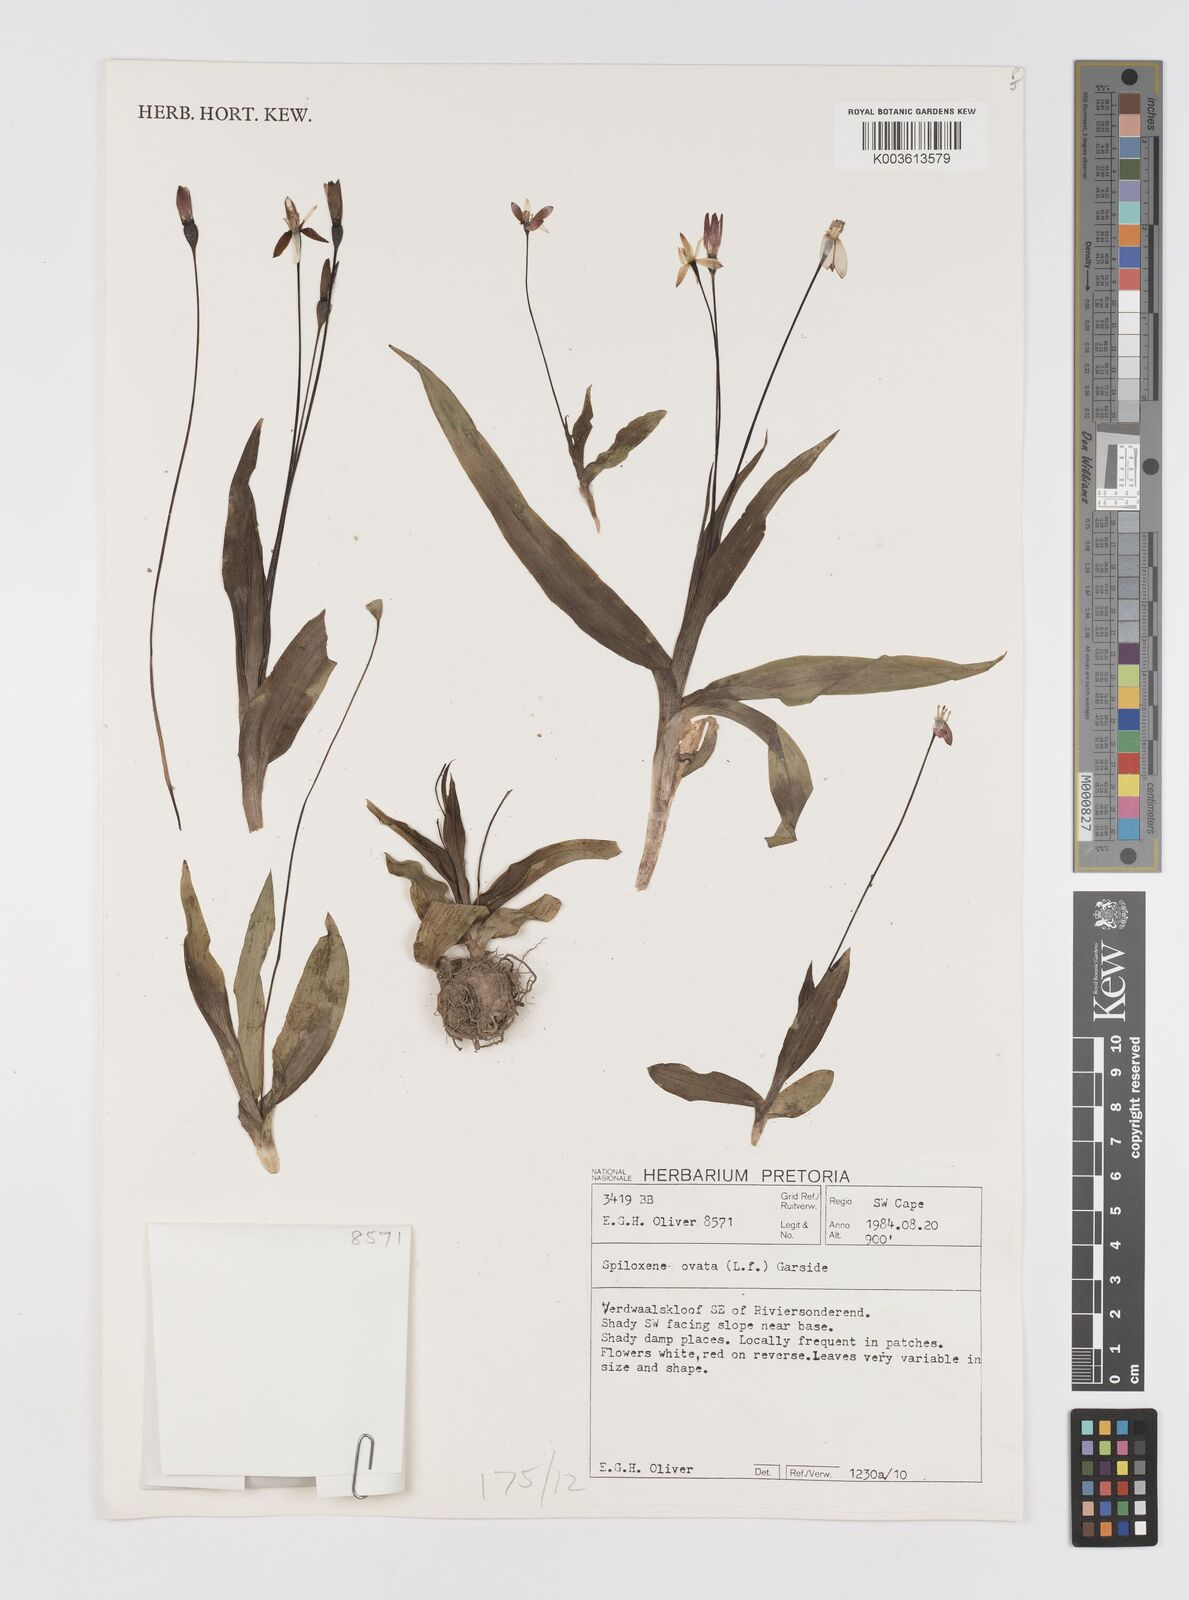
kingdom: Plantae
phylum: Tracheophyta
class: Liliopsida
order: Asparagales
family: Hypoxidaceae
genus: Pauridia
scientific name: Pauridia ovata
